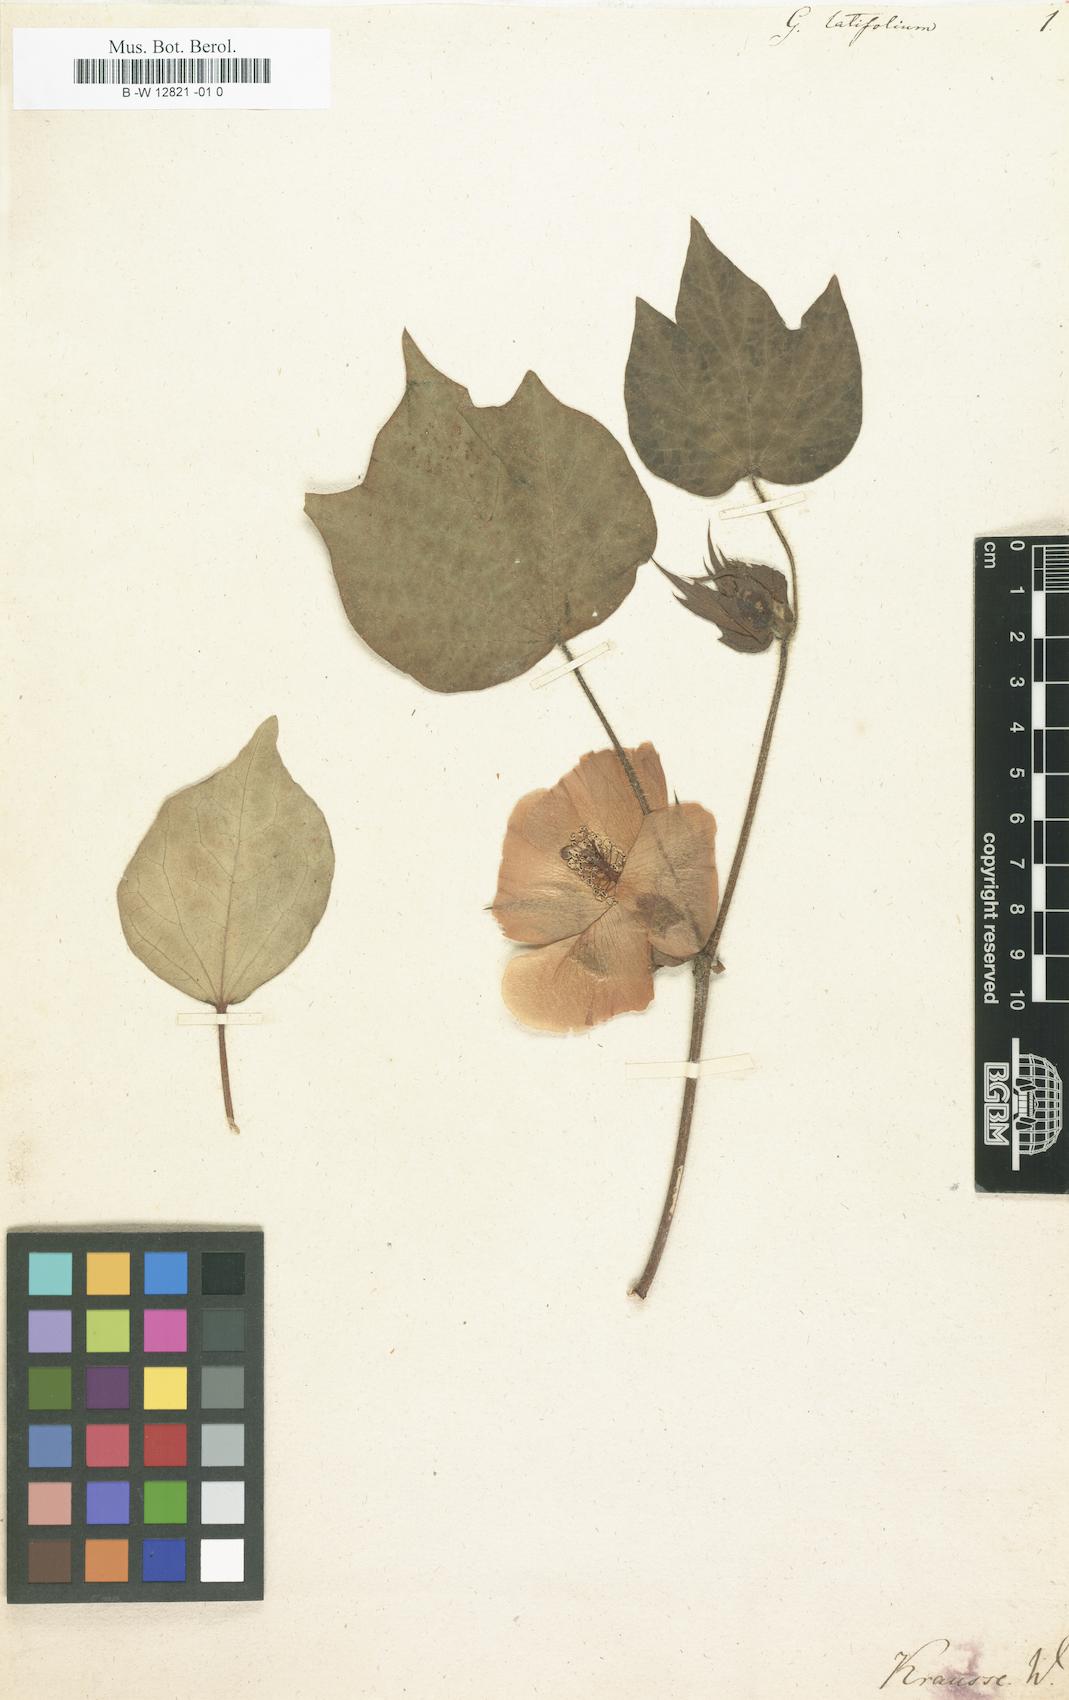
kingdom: Plantae
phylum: Tracheophyta
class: Magnoliopsida
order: Malvales
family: Malvaceae
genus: Gossypium
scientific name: Gossypium latifolium
